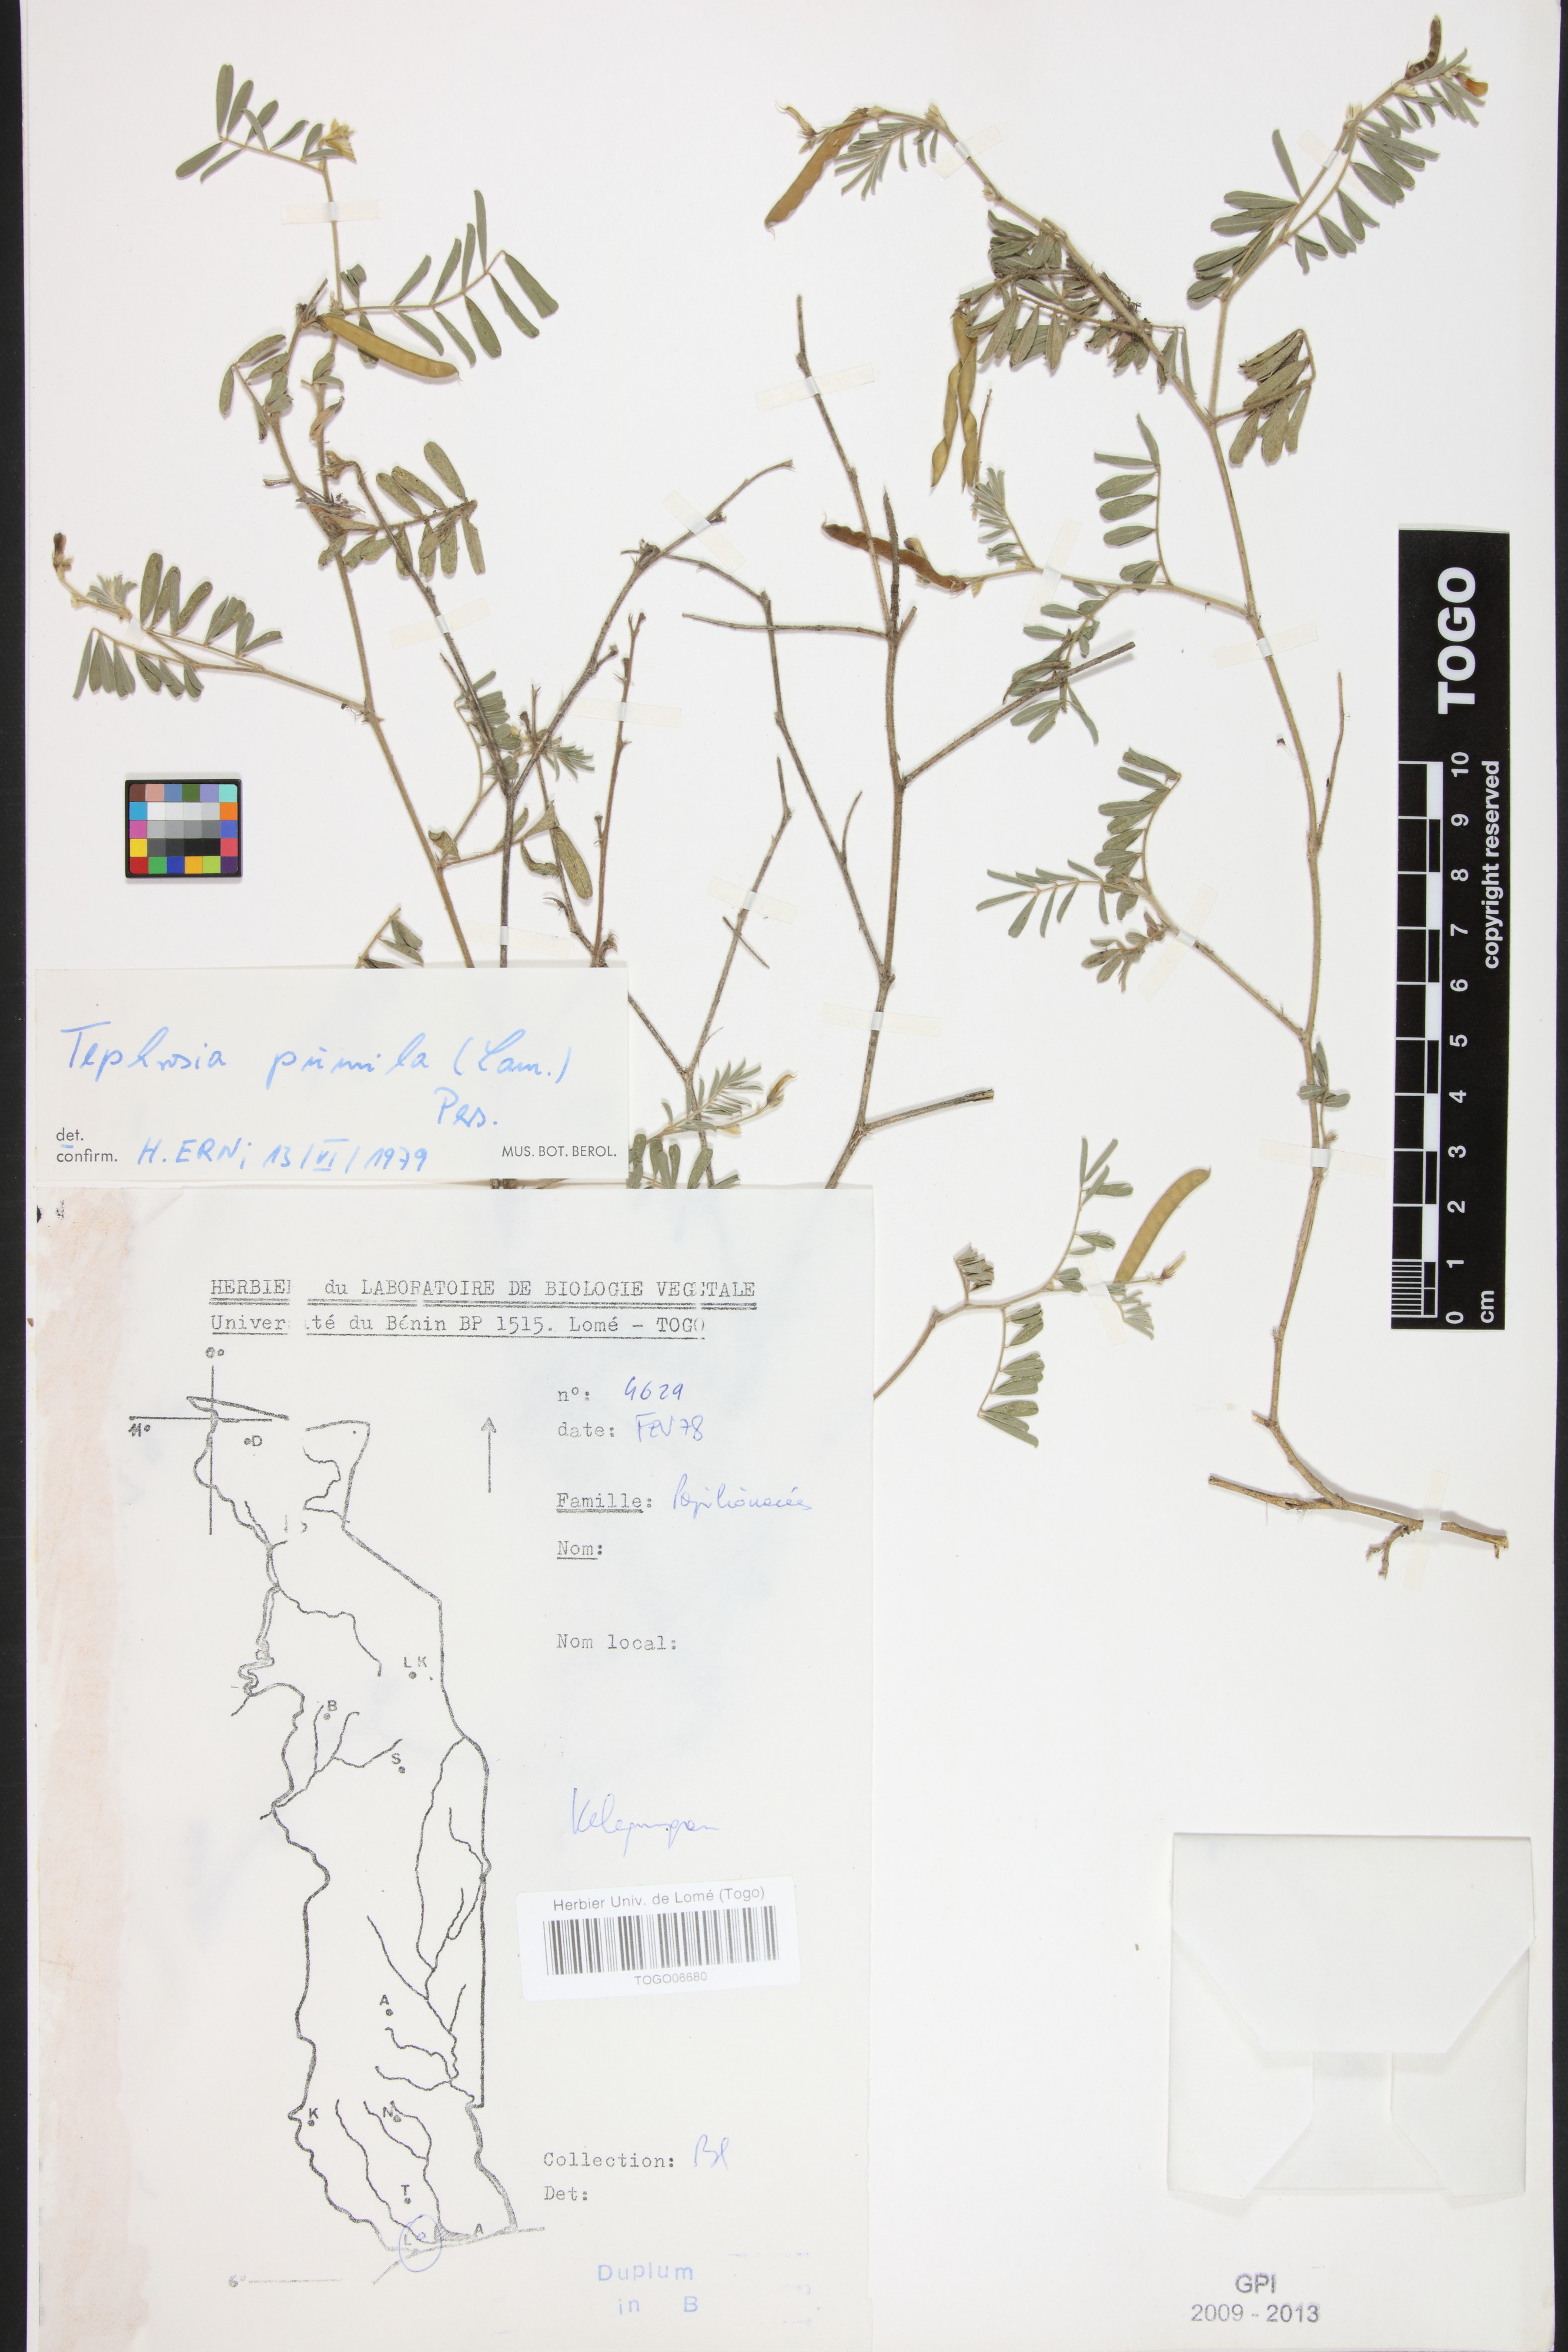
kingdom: Plantae
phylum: Tracheophyta
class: Magnoliopsida
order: Fabales
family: Fabaceae
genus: Tephrosia
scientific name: Tephrosia pumila
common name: Indigo sauvage
